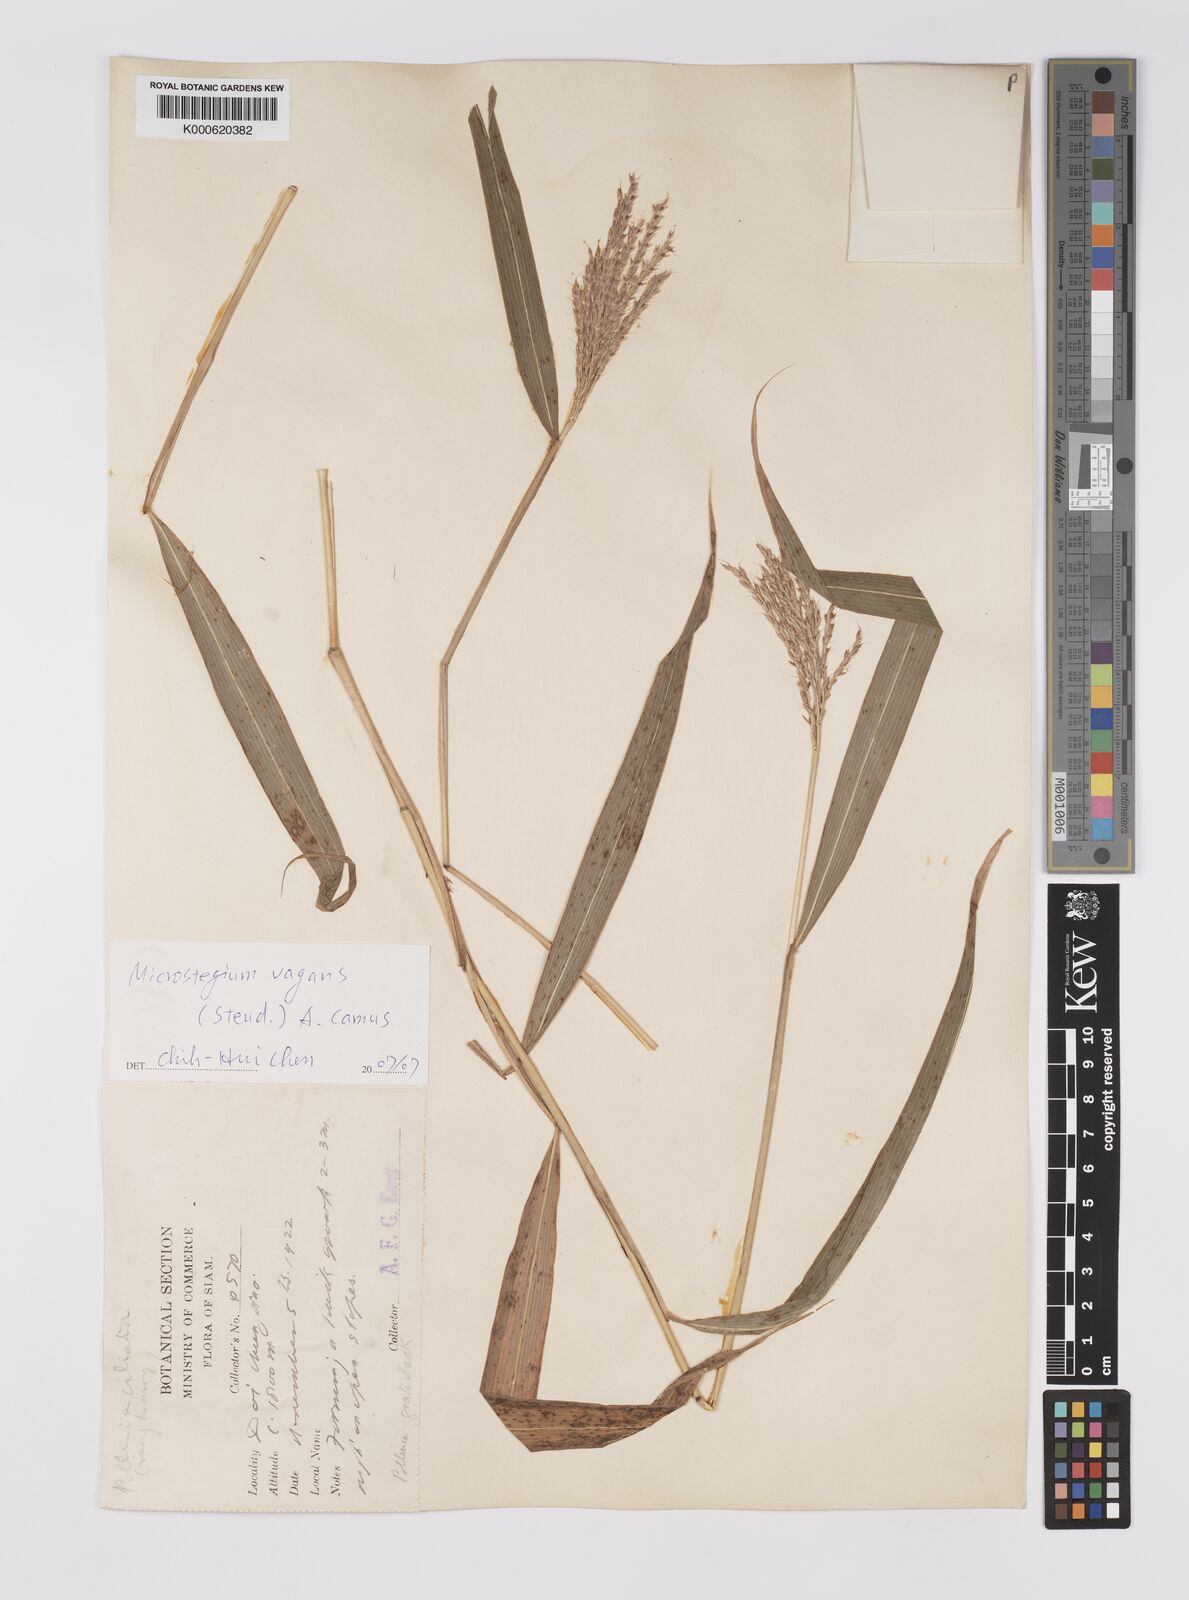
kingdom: Plantae
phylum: Tracheophyta
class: Liliopsida
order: Poales
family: Poaceae
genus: Microstegium
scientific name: Microstegium fasciculatum
